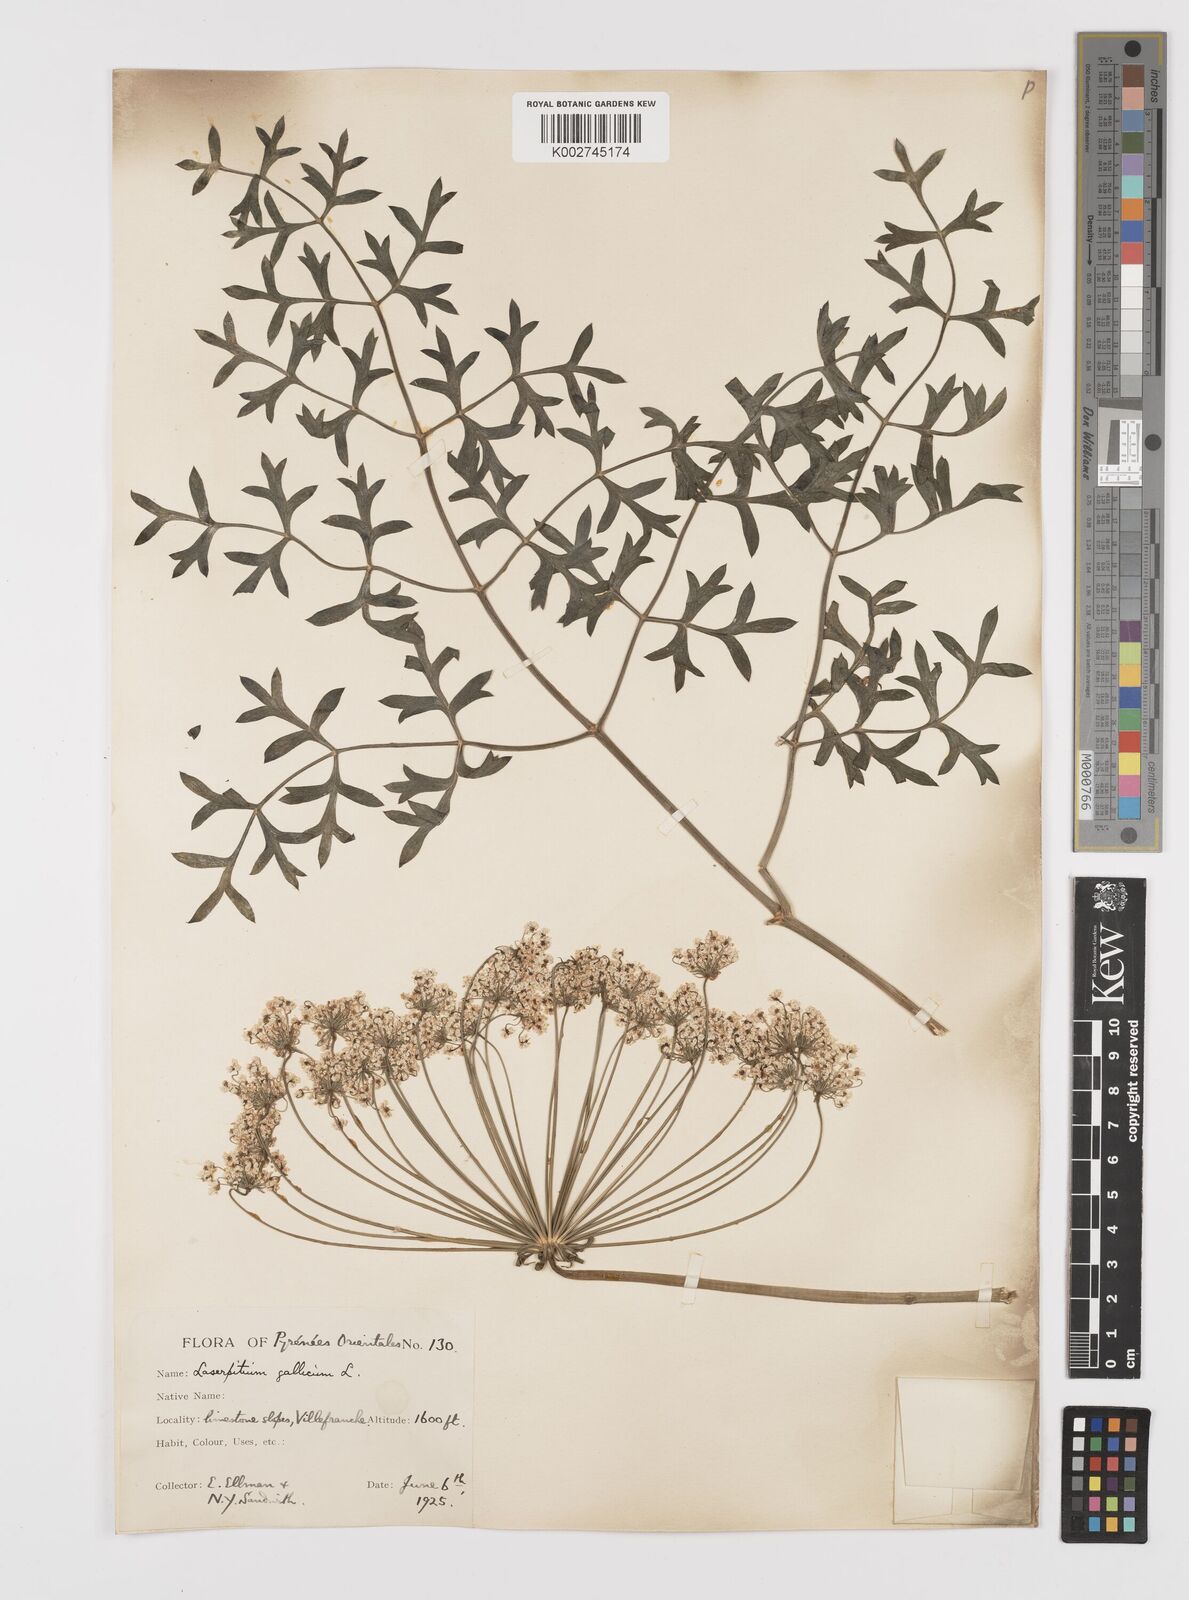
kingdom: Plantae
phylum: Tracheophyta
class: Magnoliopsida
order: Apiales
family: Apiaceae
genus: Laserpitium
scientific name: Laserpitium gallicum
